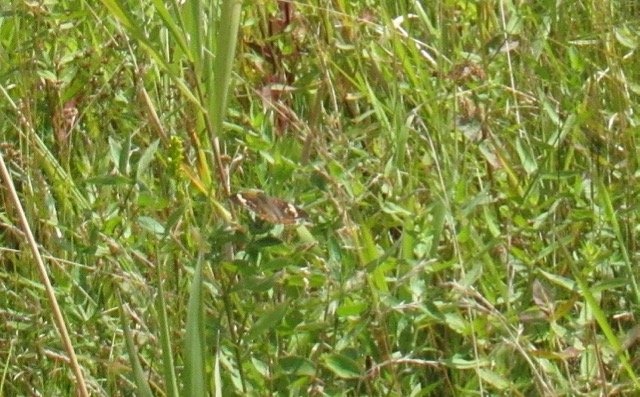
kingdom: Animalia
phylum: Arthropoda
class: Insecta
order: Lepidoptera
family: Nymphalidae
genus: Junonia
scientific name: Junonia coenia
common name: Common Buckeye
